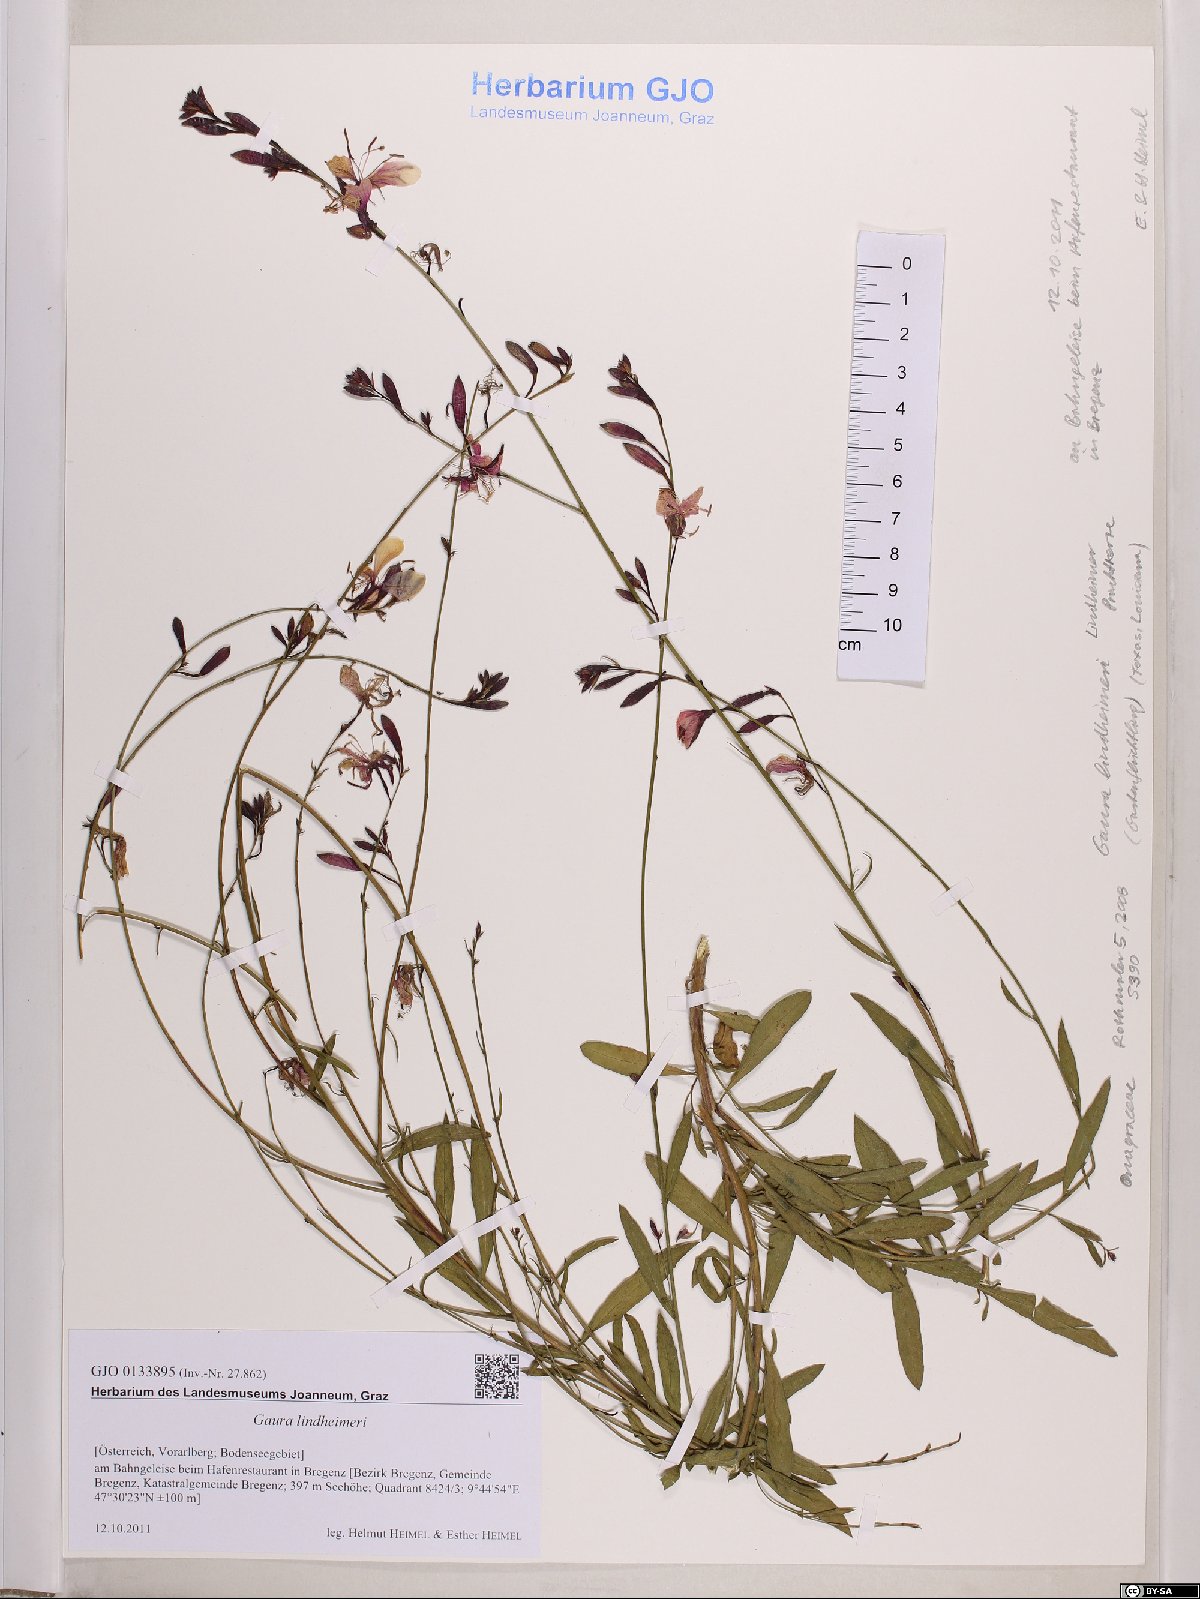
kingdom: Plantae
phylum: Tracheophyta
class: Magnoliopsida
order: Myrtales
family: Onagraceae
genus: Oenothera
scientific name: Oenothera lindheimeri
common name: Lindheimer's beeblossom
